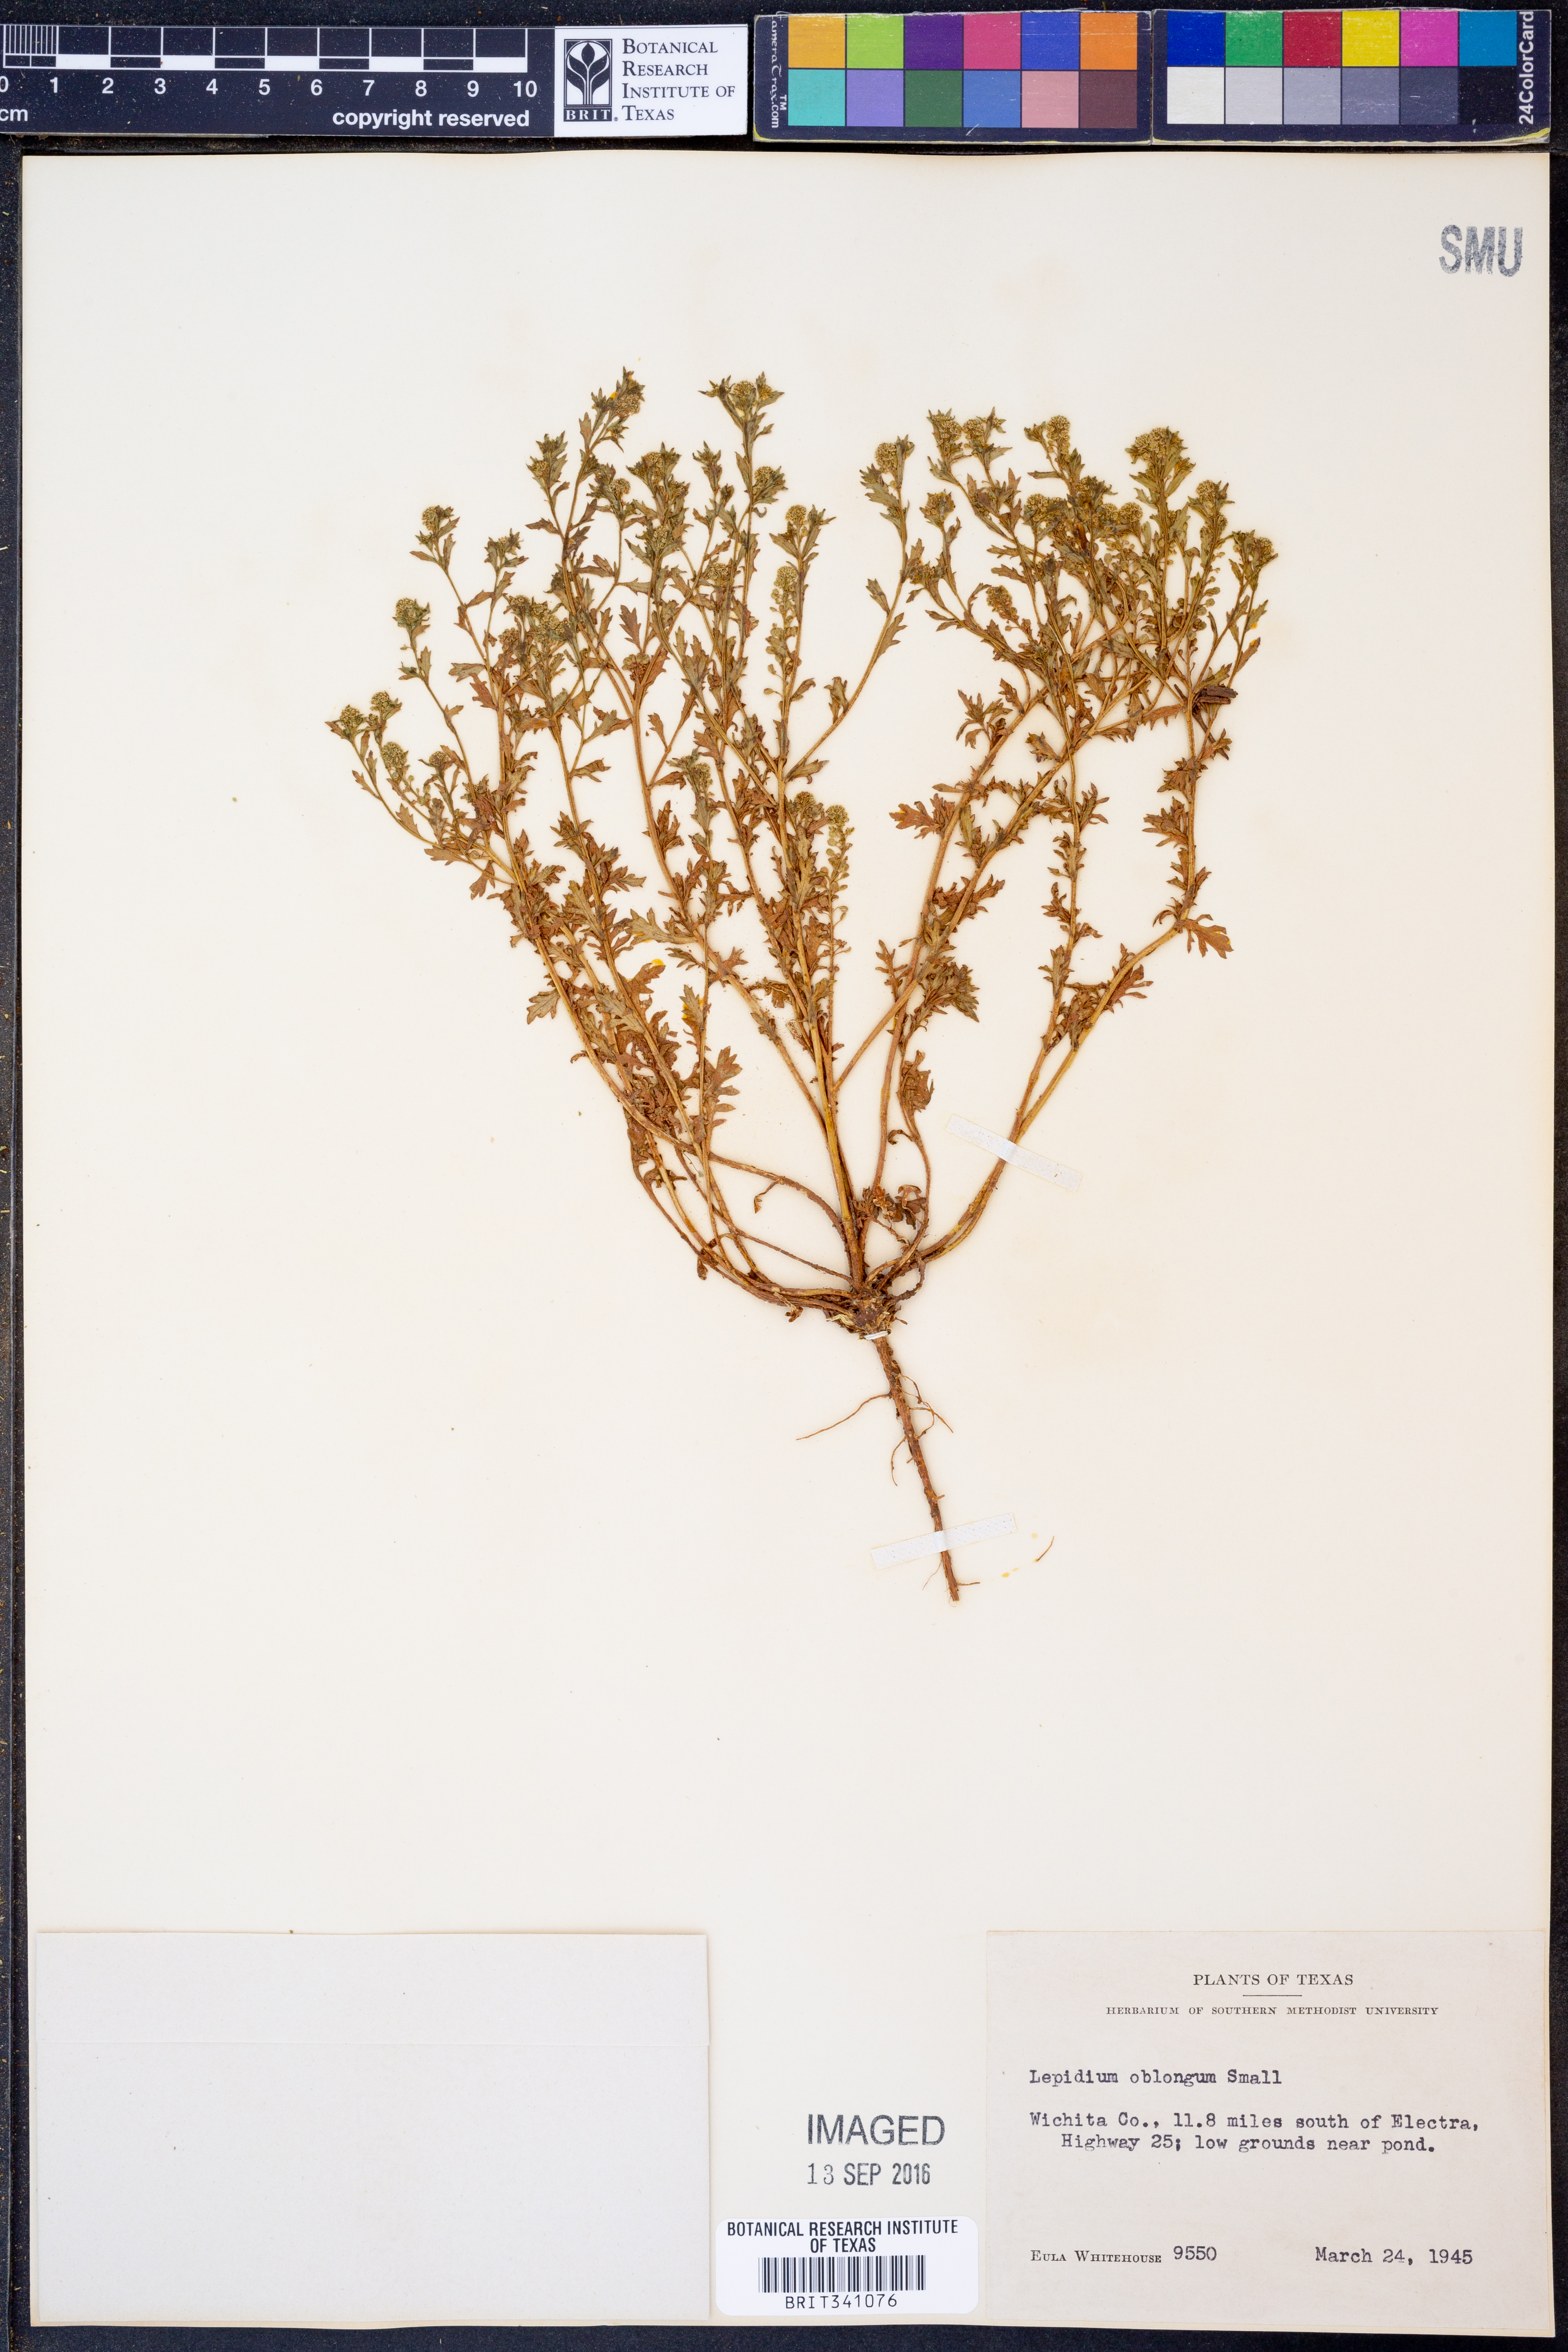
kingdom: Plantae
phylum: Tracheophyta
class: Magnoliopsida
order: Brassicales
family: Brassicaceae
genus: Lepidium
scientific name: Lepidium oblongum
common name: Veiny pepperweed
